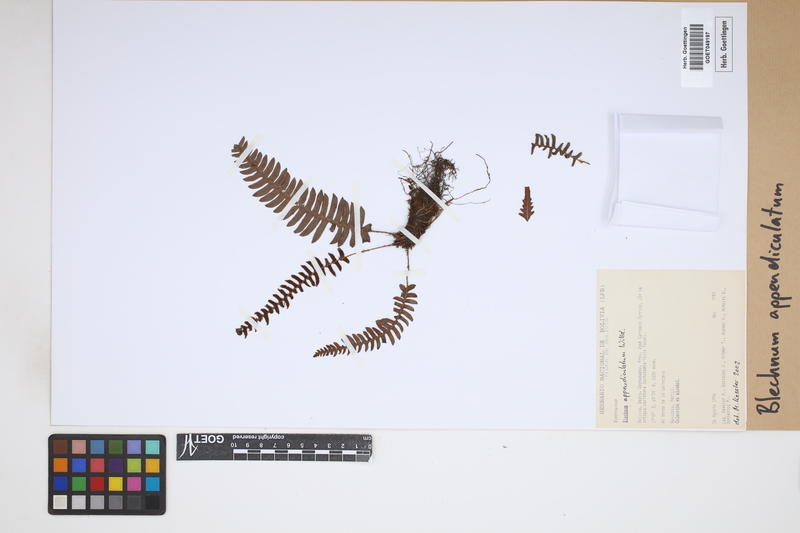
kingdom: Plantae
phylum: Tracheophyta
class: Polypodiopsida
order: Polypodiales
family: Blechnaceae
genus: Blechnum
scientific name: Blechnum appendiculatum
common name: Palm fern
